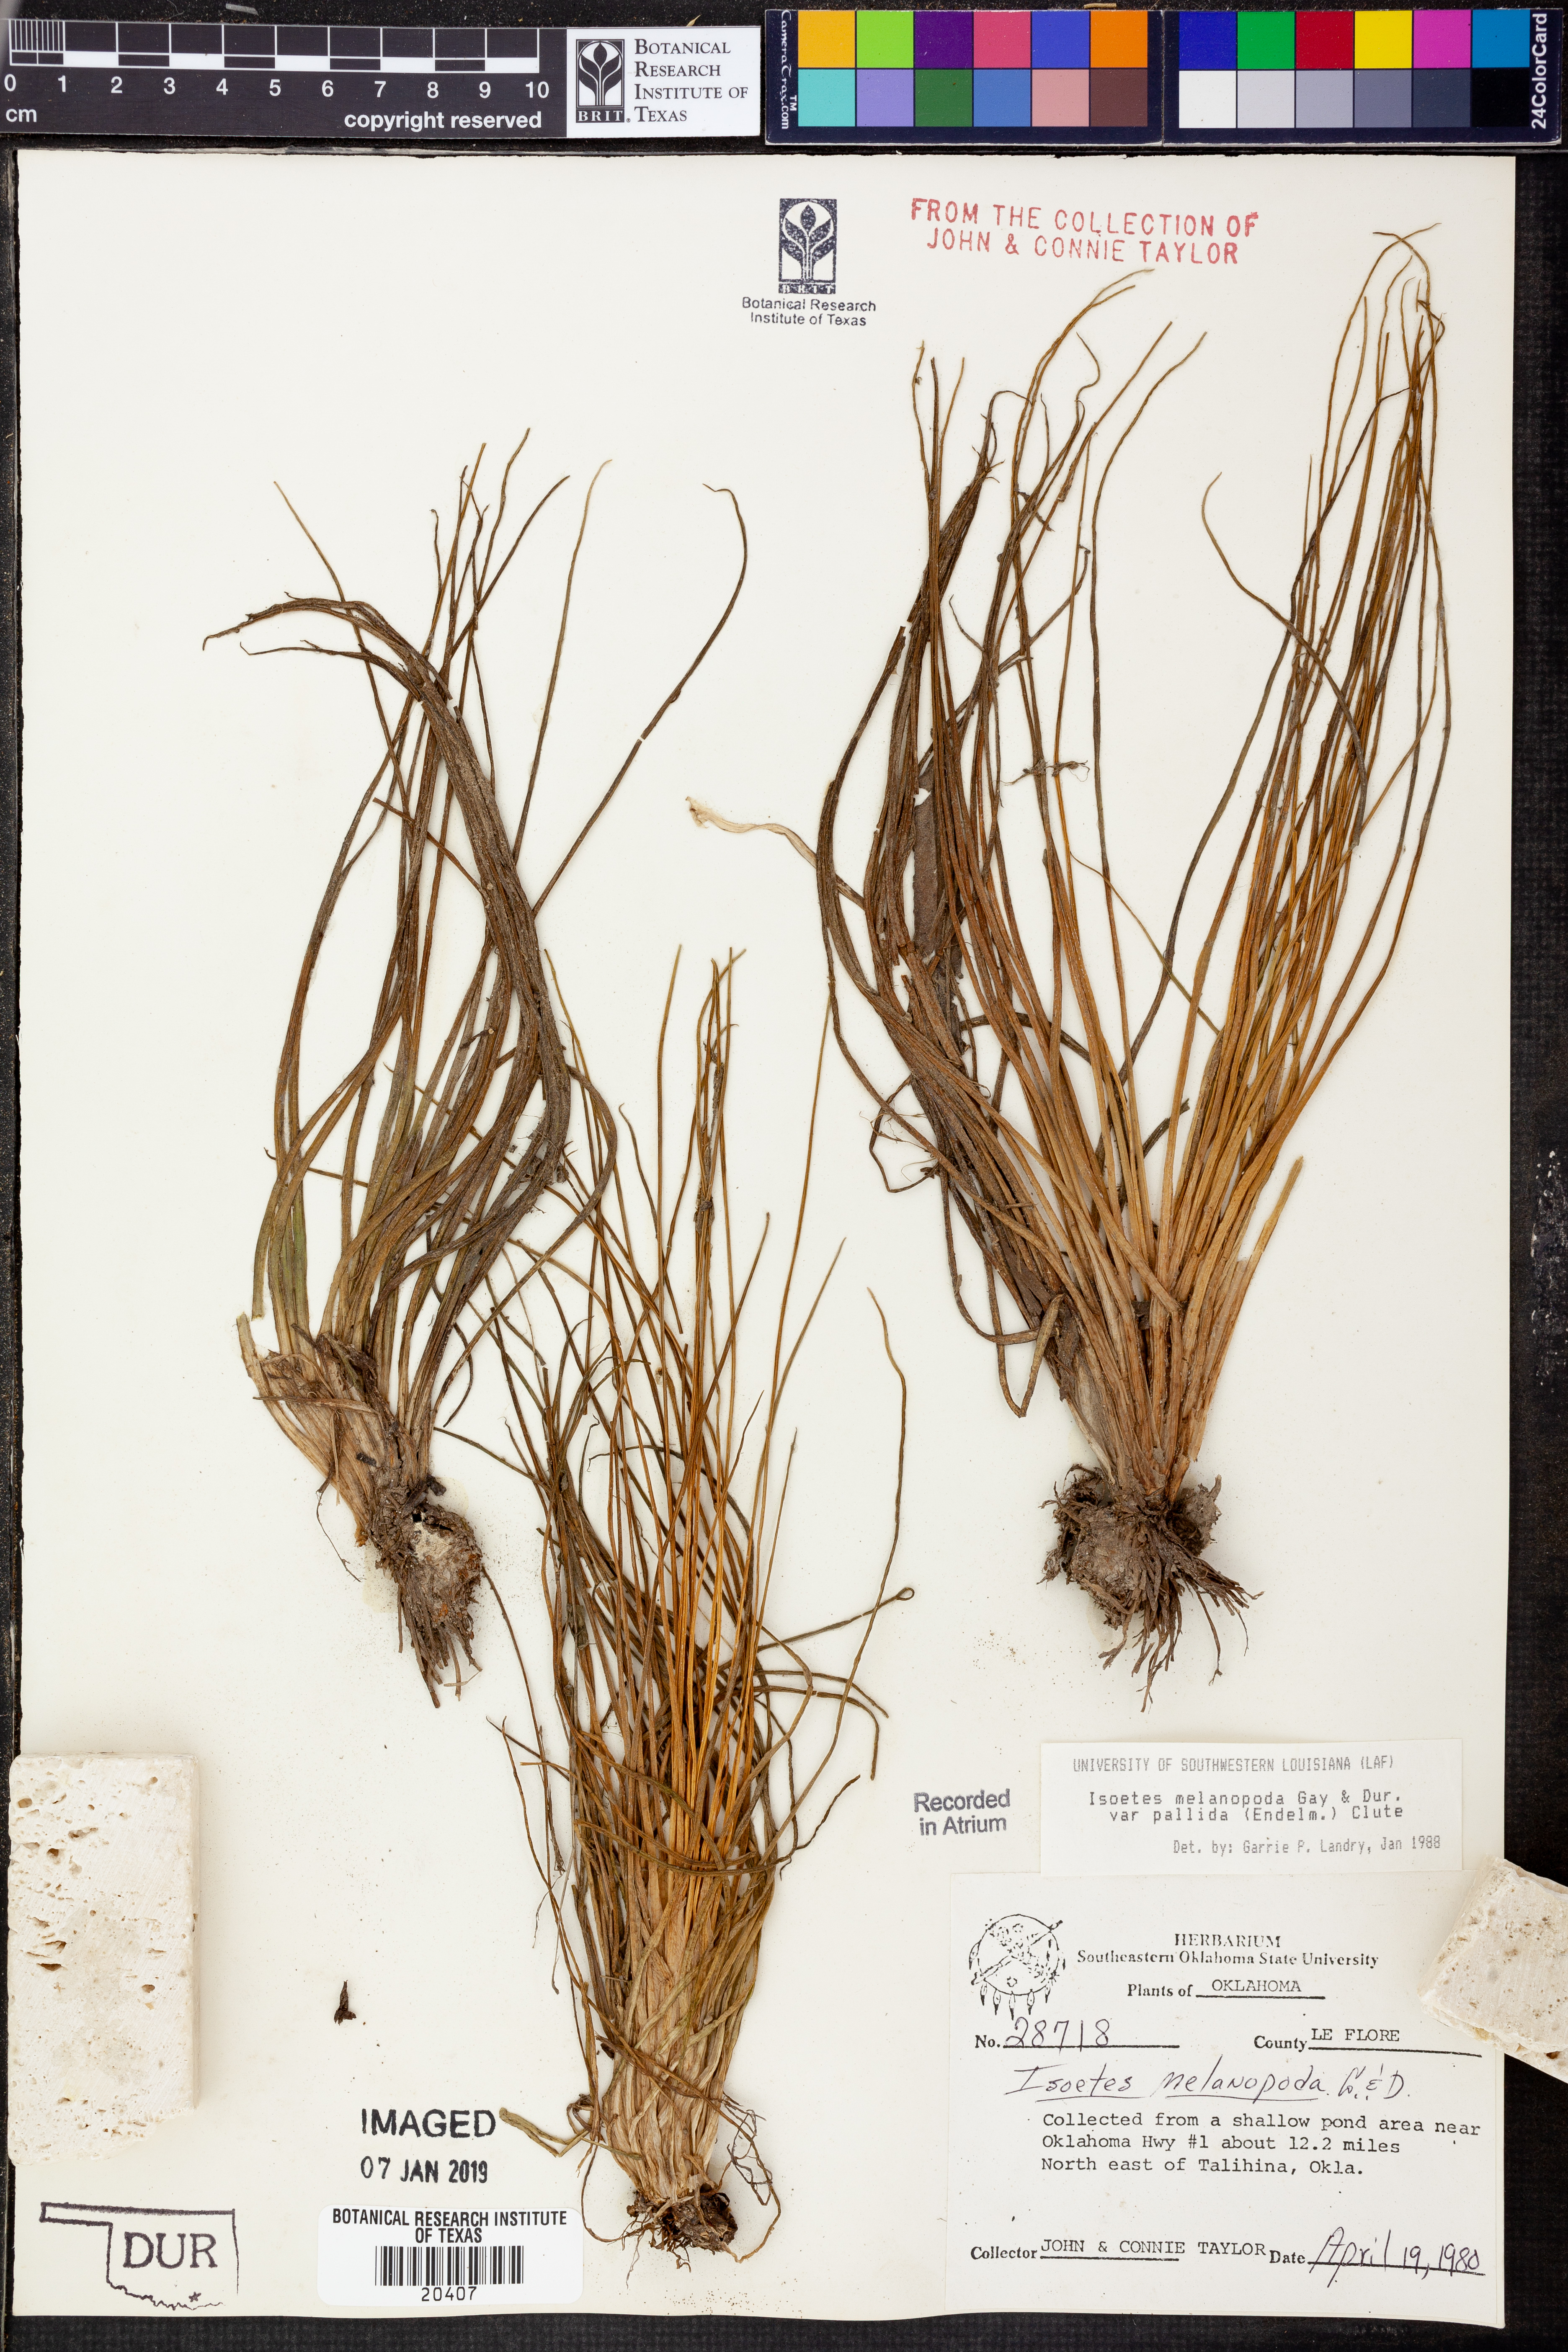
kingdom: Plantae
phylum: Tracheophyta
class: Lycopodiopsida
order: Isoetales
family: Isoetaceae
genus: Isoetes
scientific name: Isoetes melanopoda
